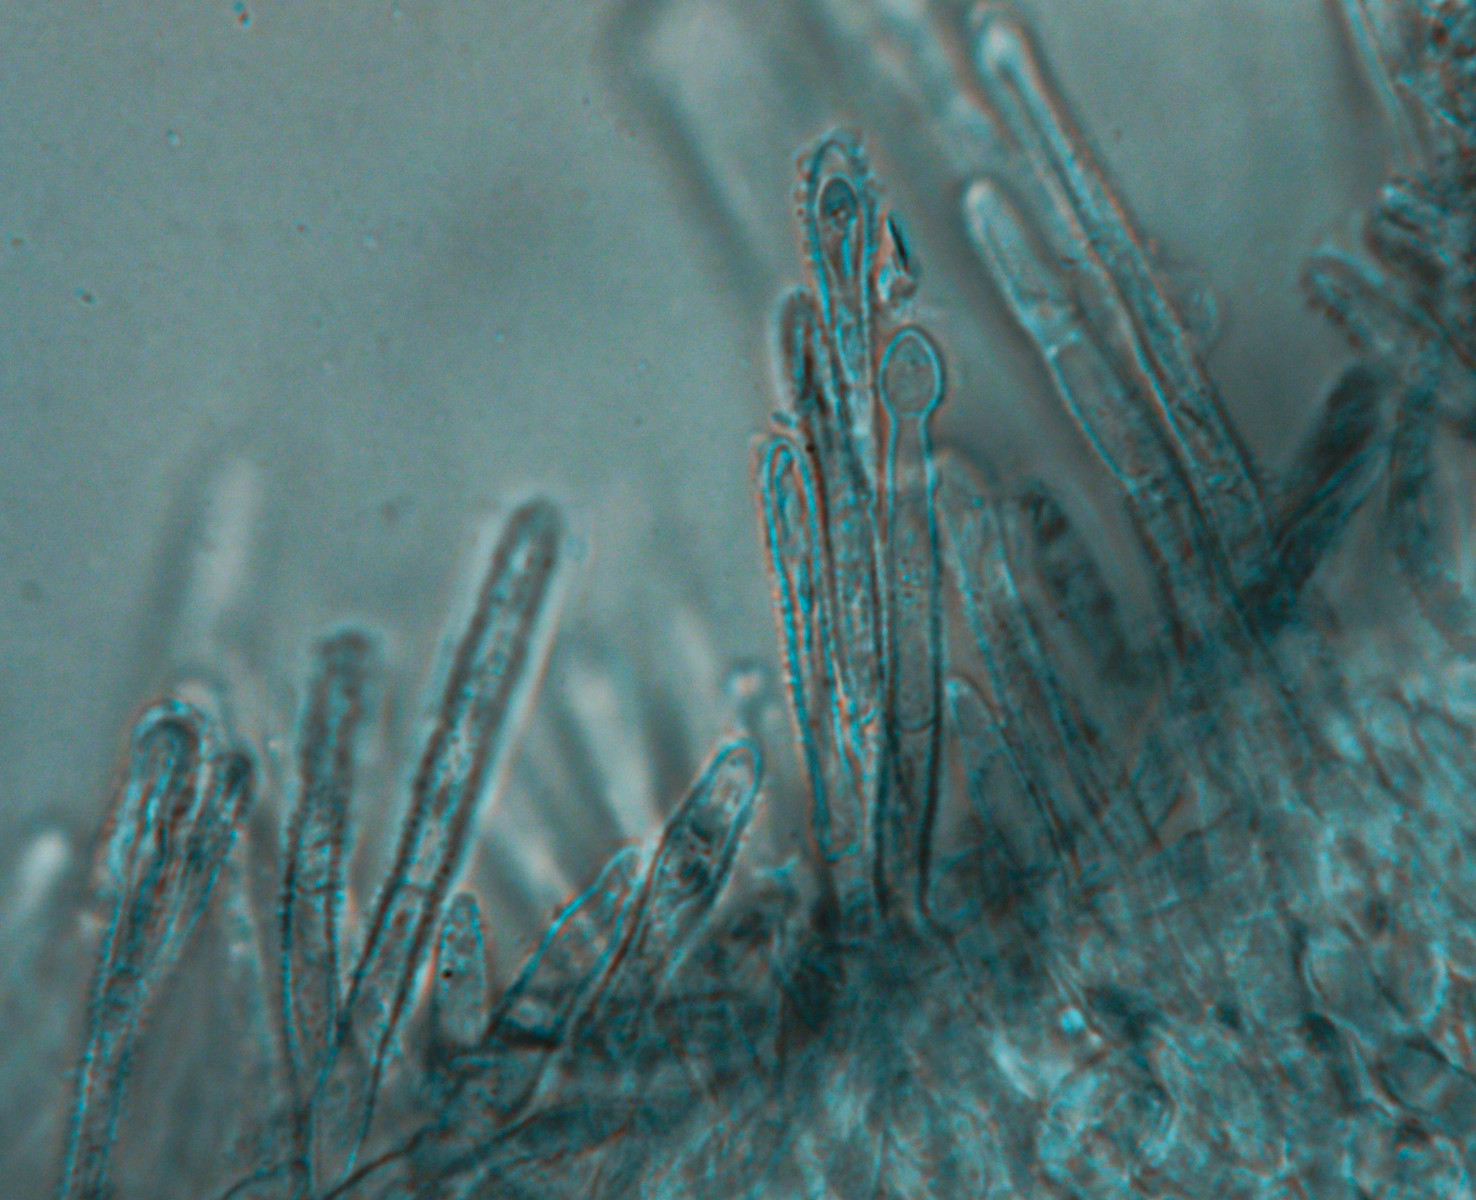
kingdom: Fungi
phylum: Ascomycota
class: Leotiomycetes
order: Helotiales
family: Lachnaceae
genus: Lachnum
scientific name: Lachnum impudicum
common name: vinter-frynseskive
